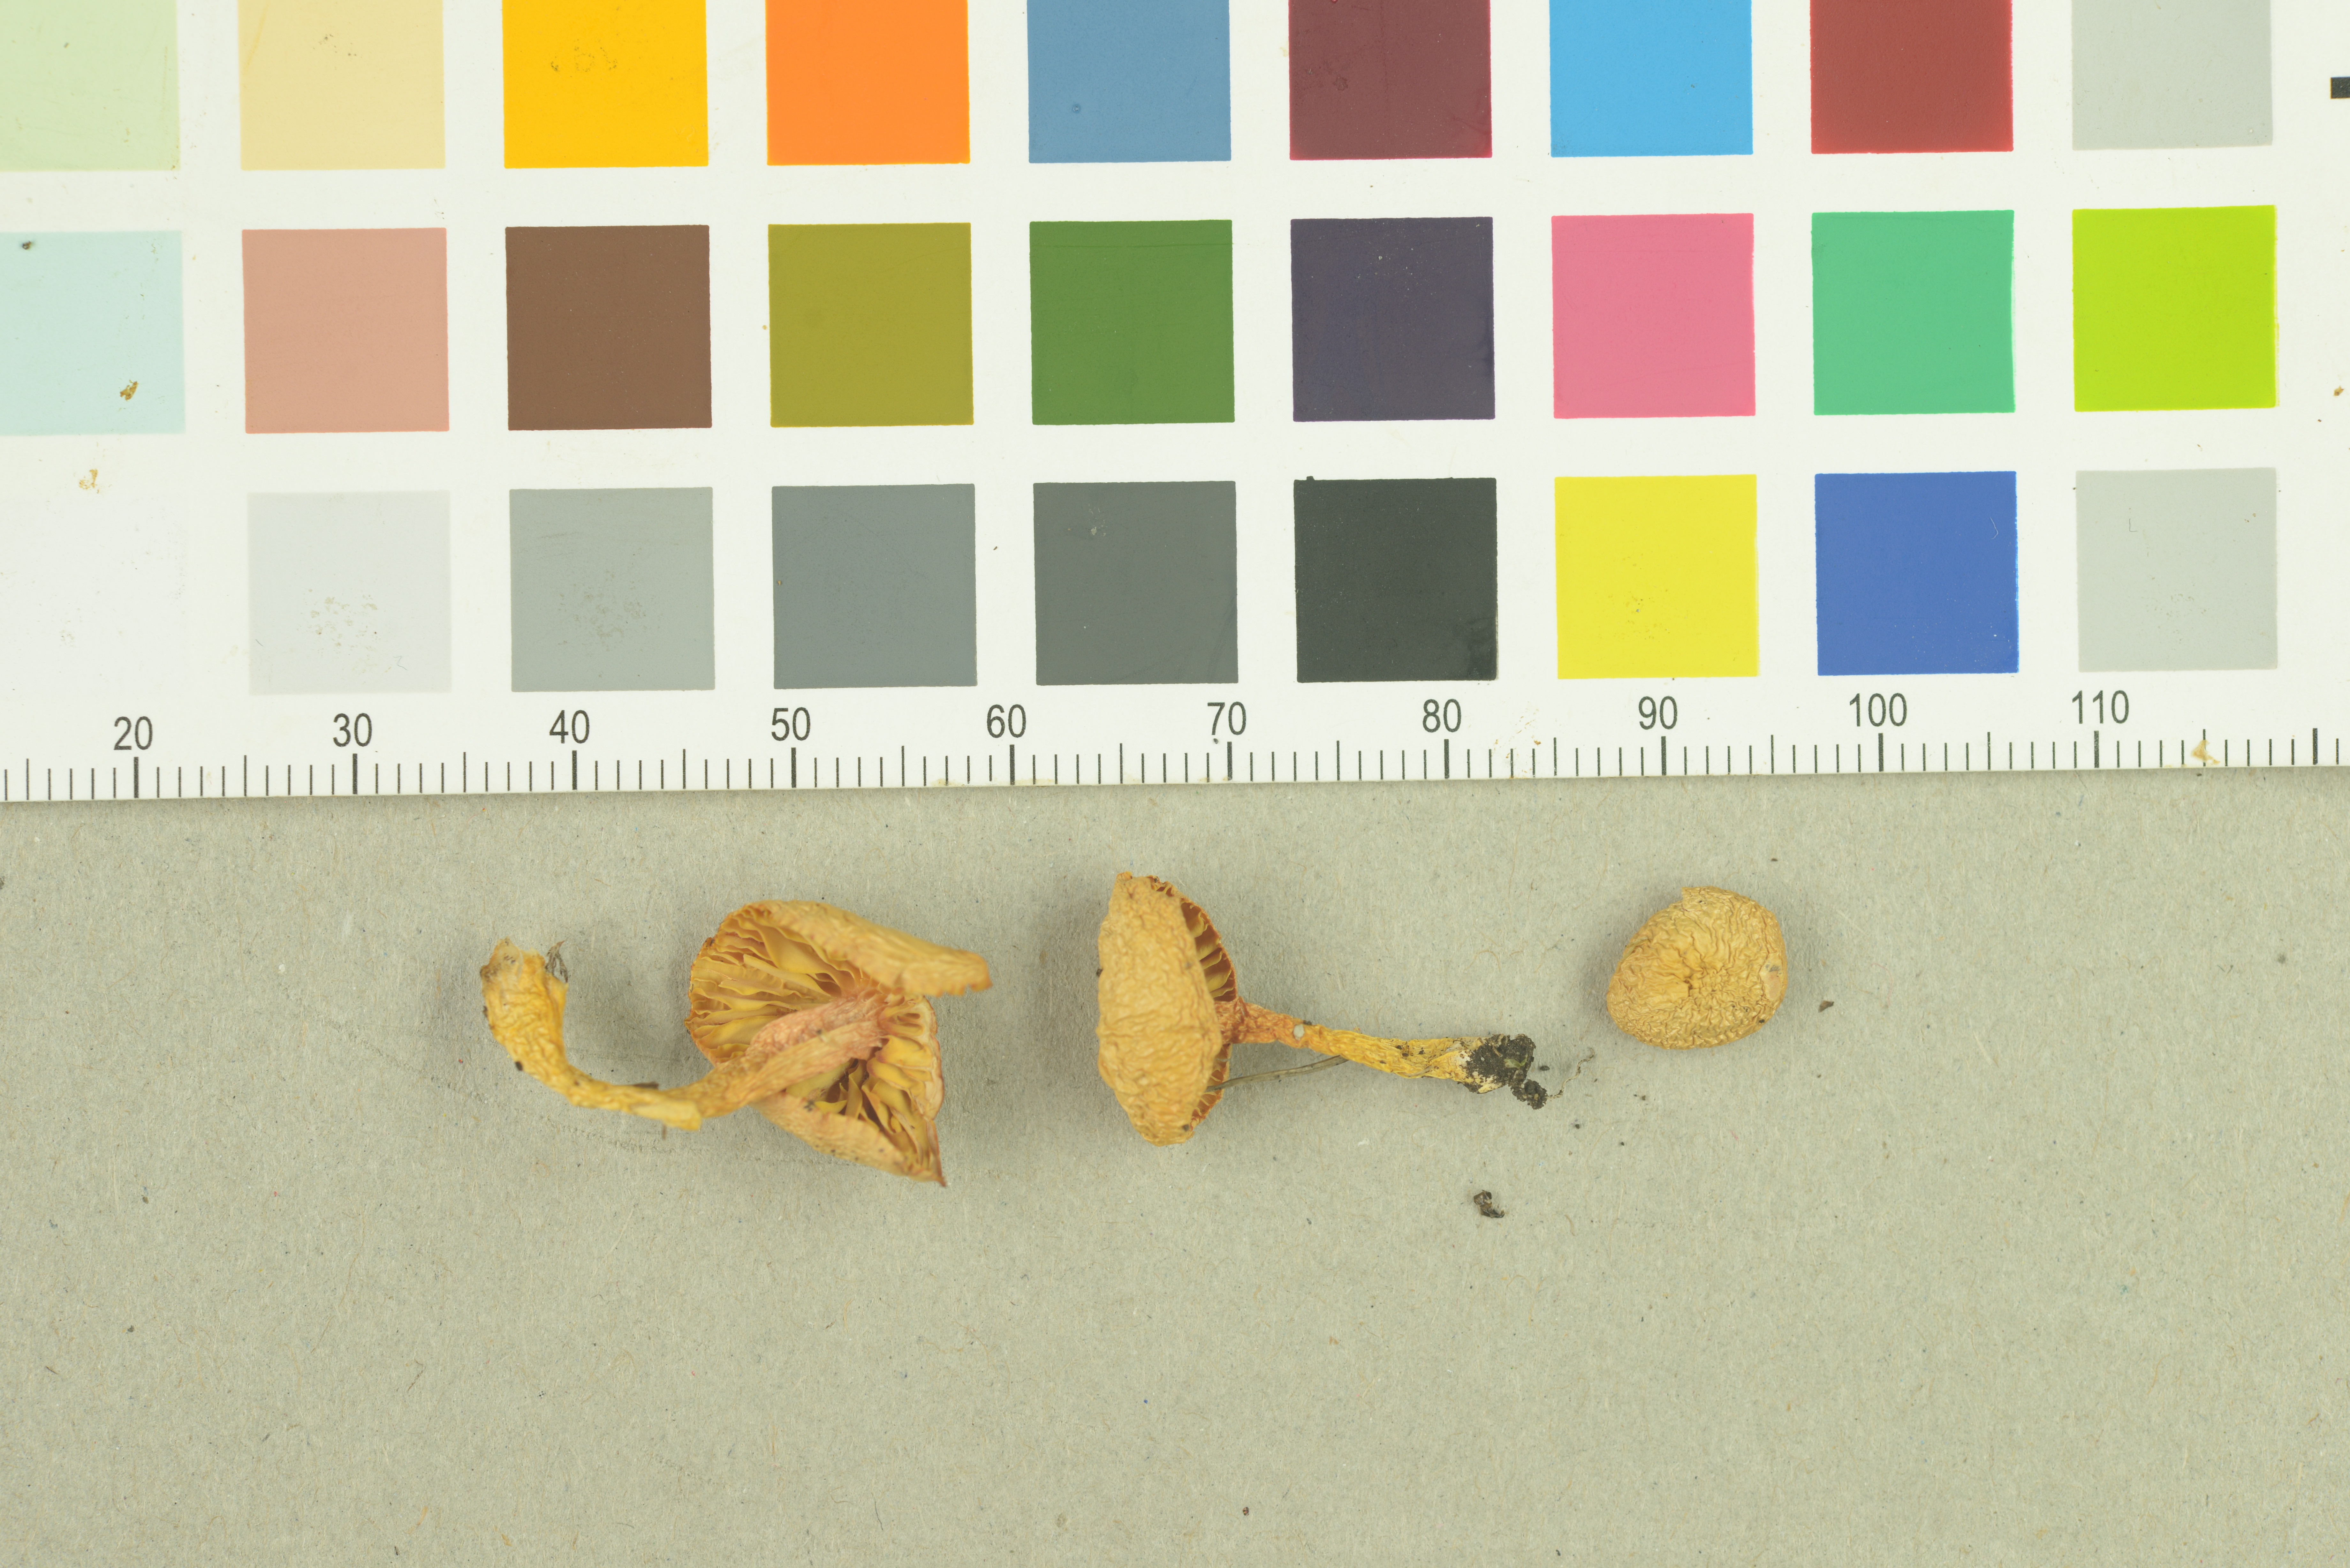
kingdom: Fungi
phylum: Basidiomycota
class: Agaricomycetes
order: Agaricales
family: Hygrophoraceae
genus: Gliophorus
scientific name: Gliophorus psittacinus
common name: Parrot wax-cap
